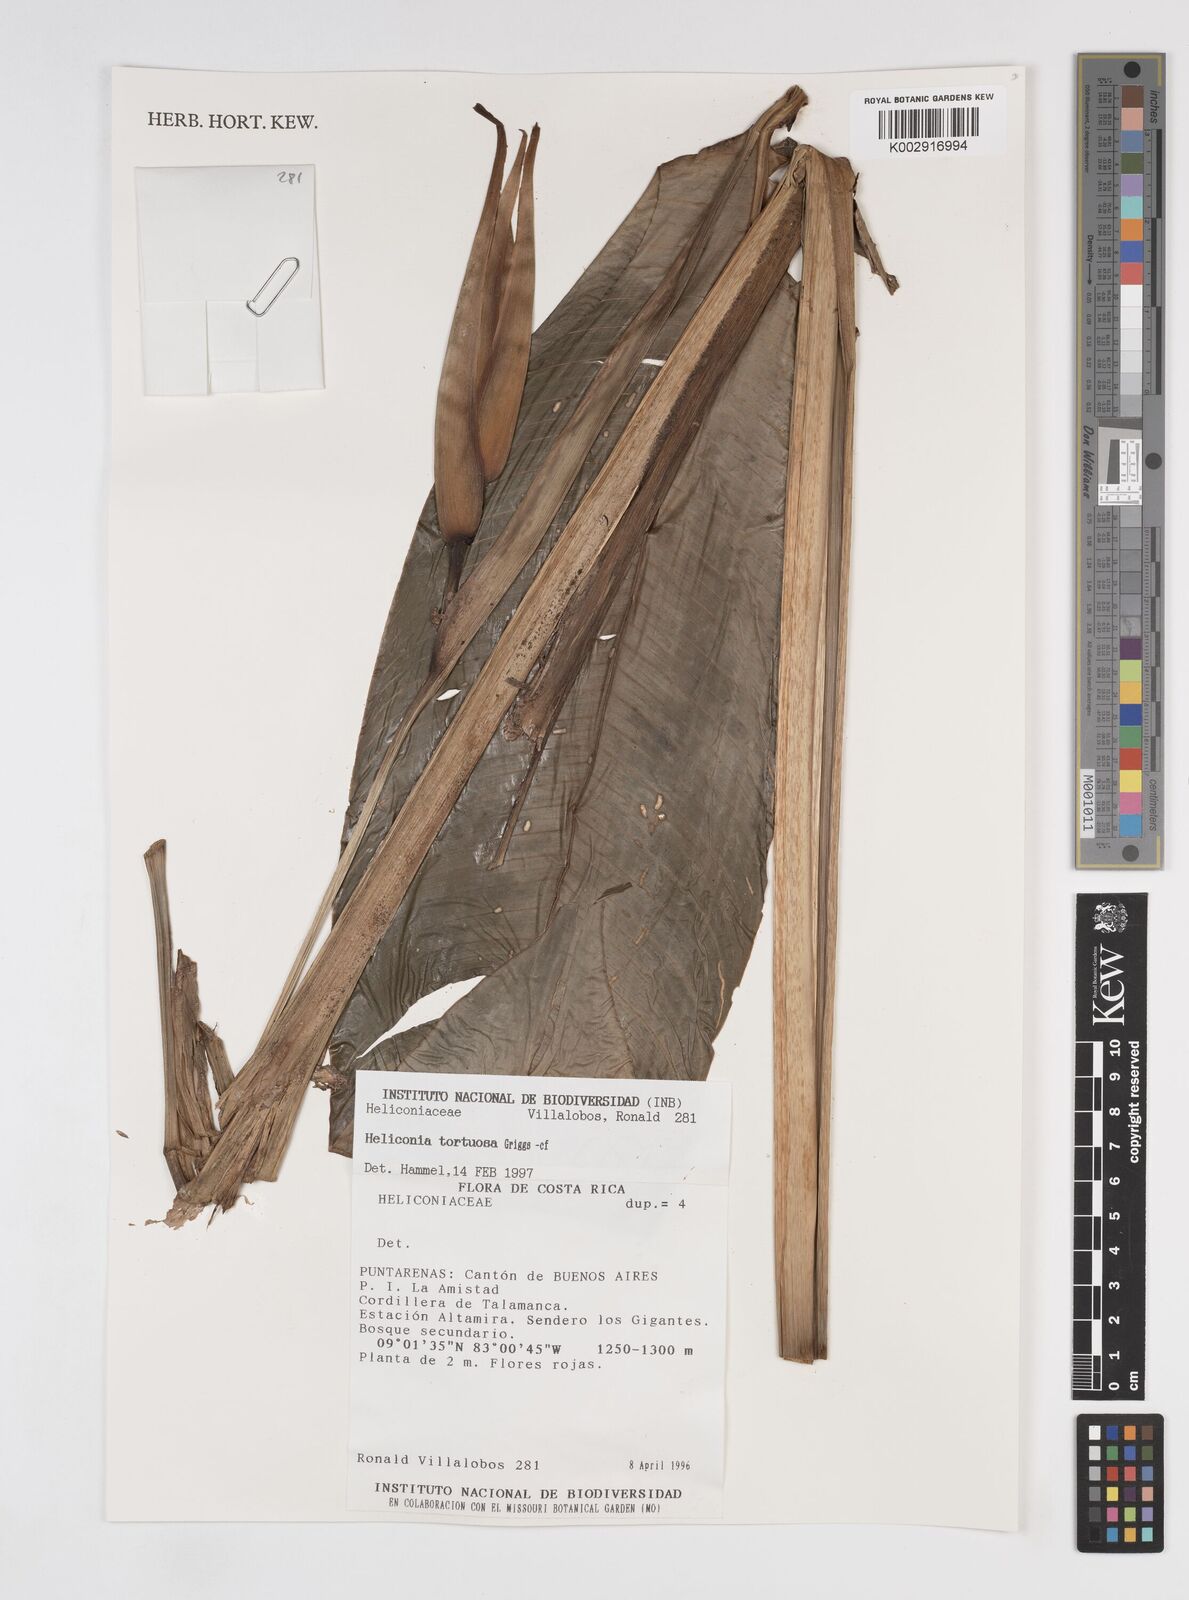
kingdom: Plantae
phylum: Tracheophyta
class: Liliopsida
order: Zingiberales
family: Heliconiaceae
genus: Heliconia
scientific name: Heliconia tortuosa
